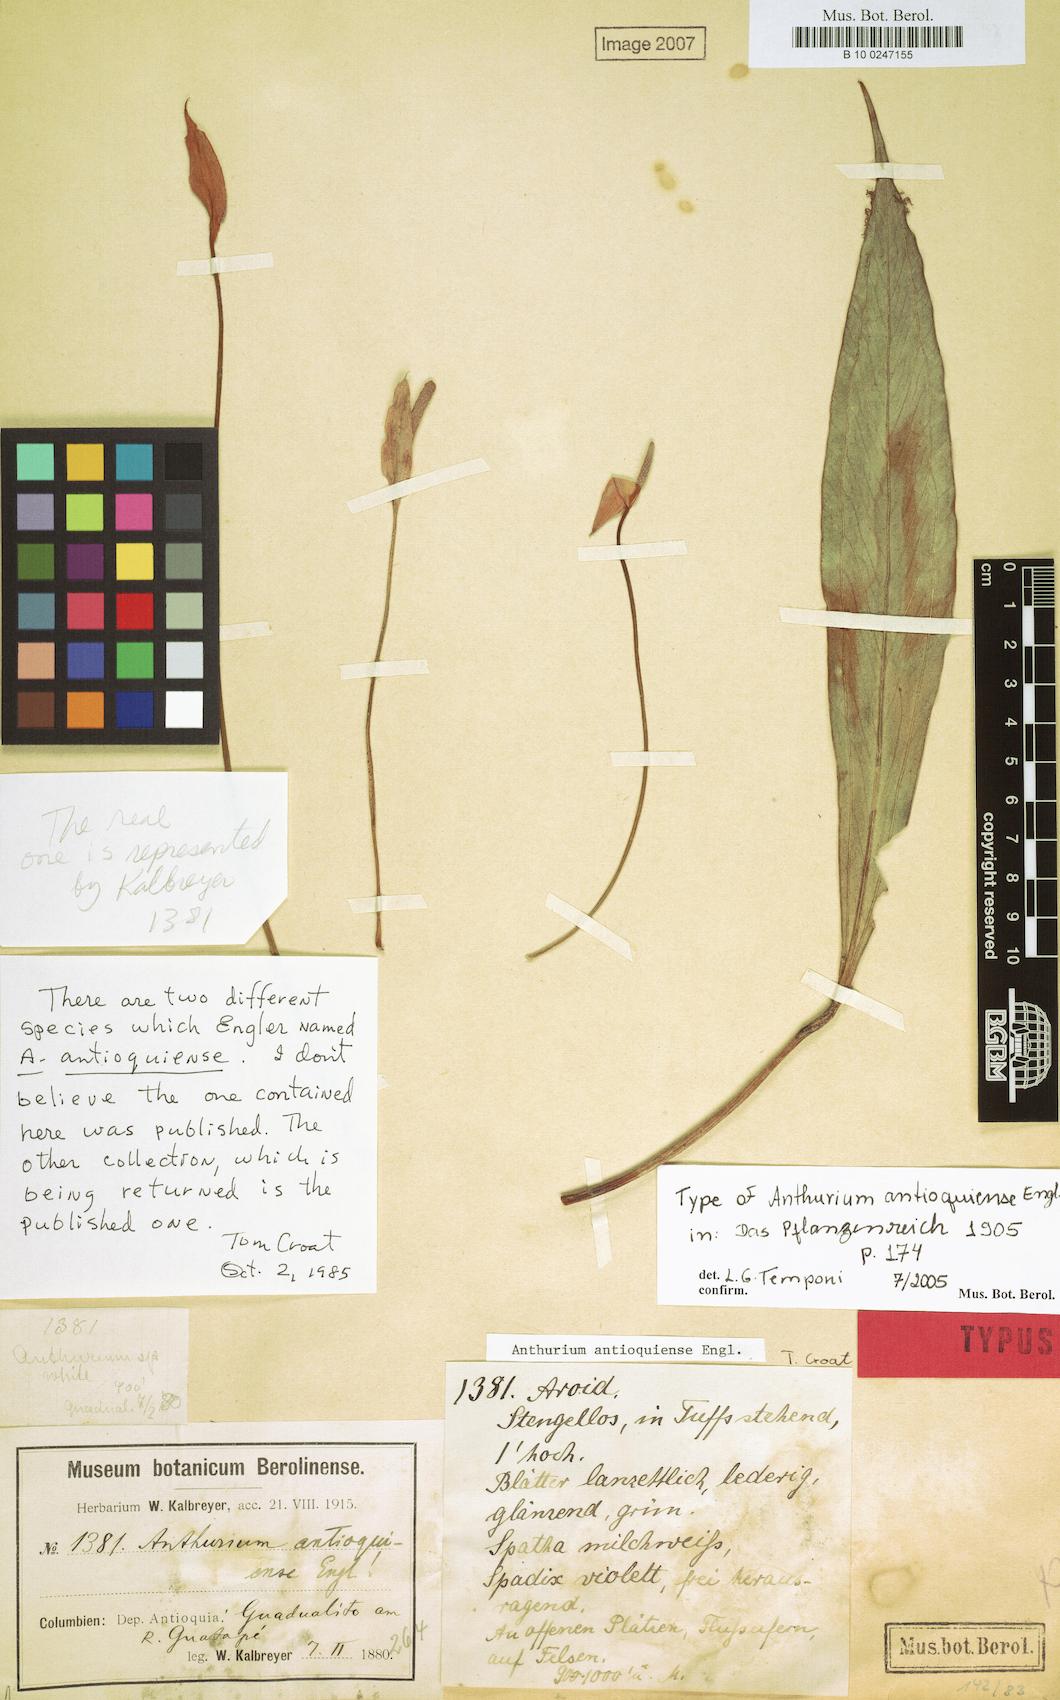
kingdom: Plantae
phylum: Tracheophyta
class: Liliopsida
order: Alismatales
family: Araceae
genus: Anthurium
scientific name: Anthurium antioquiense
